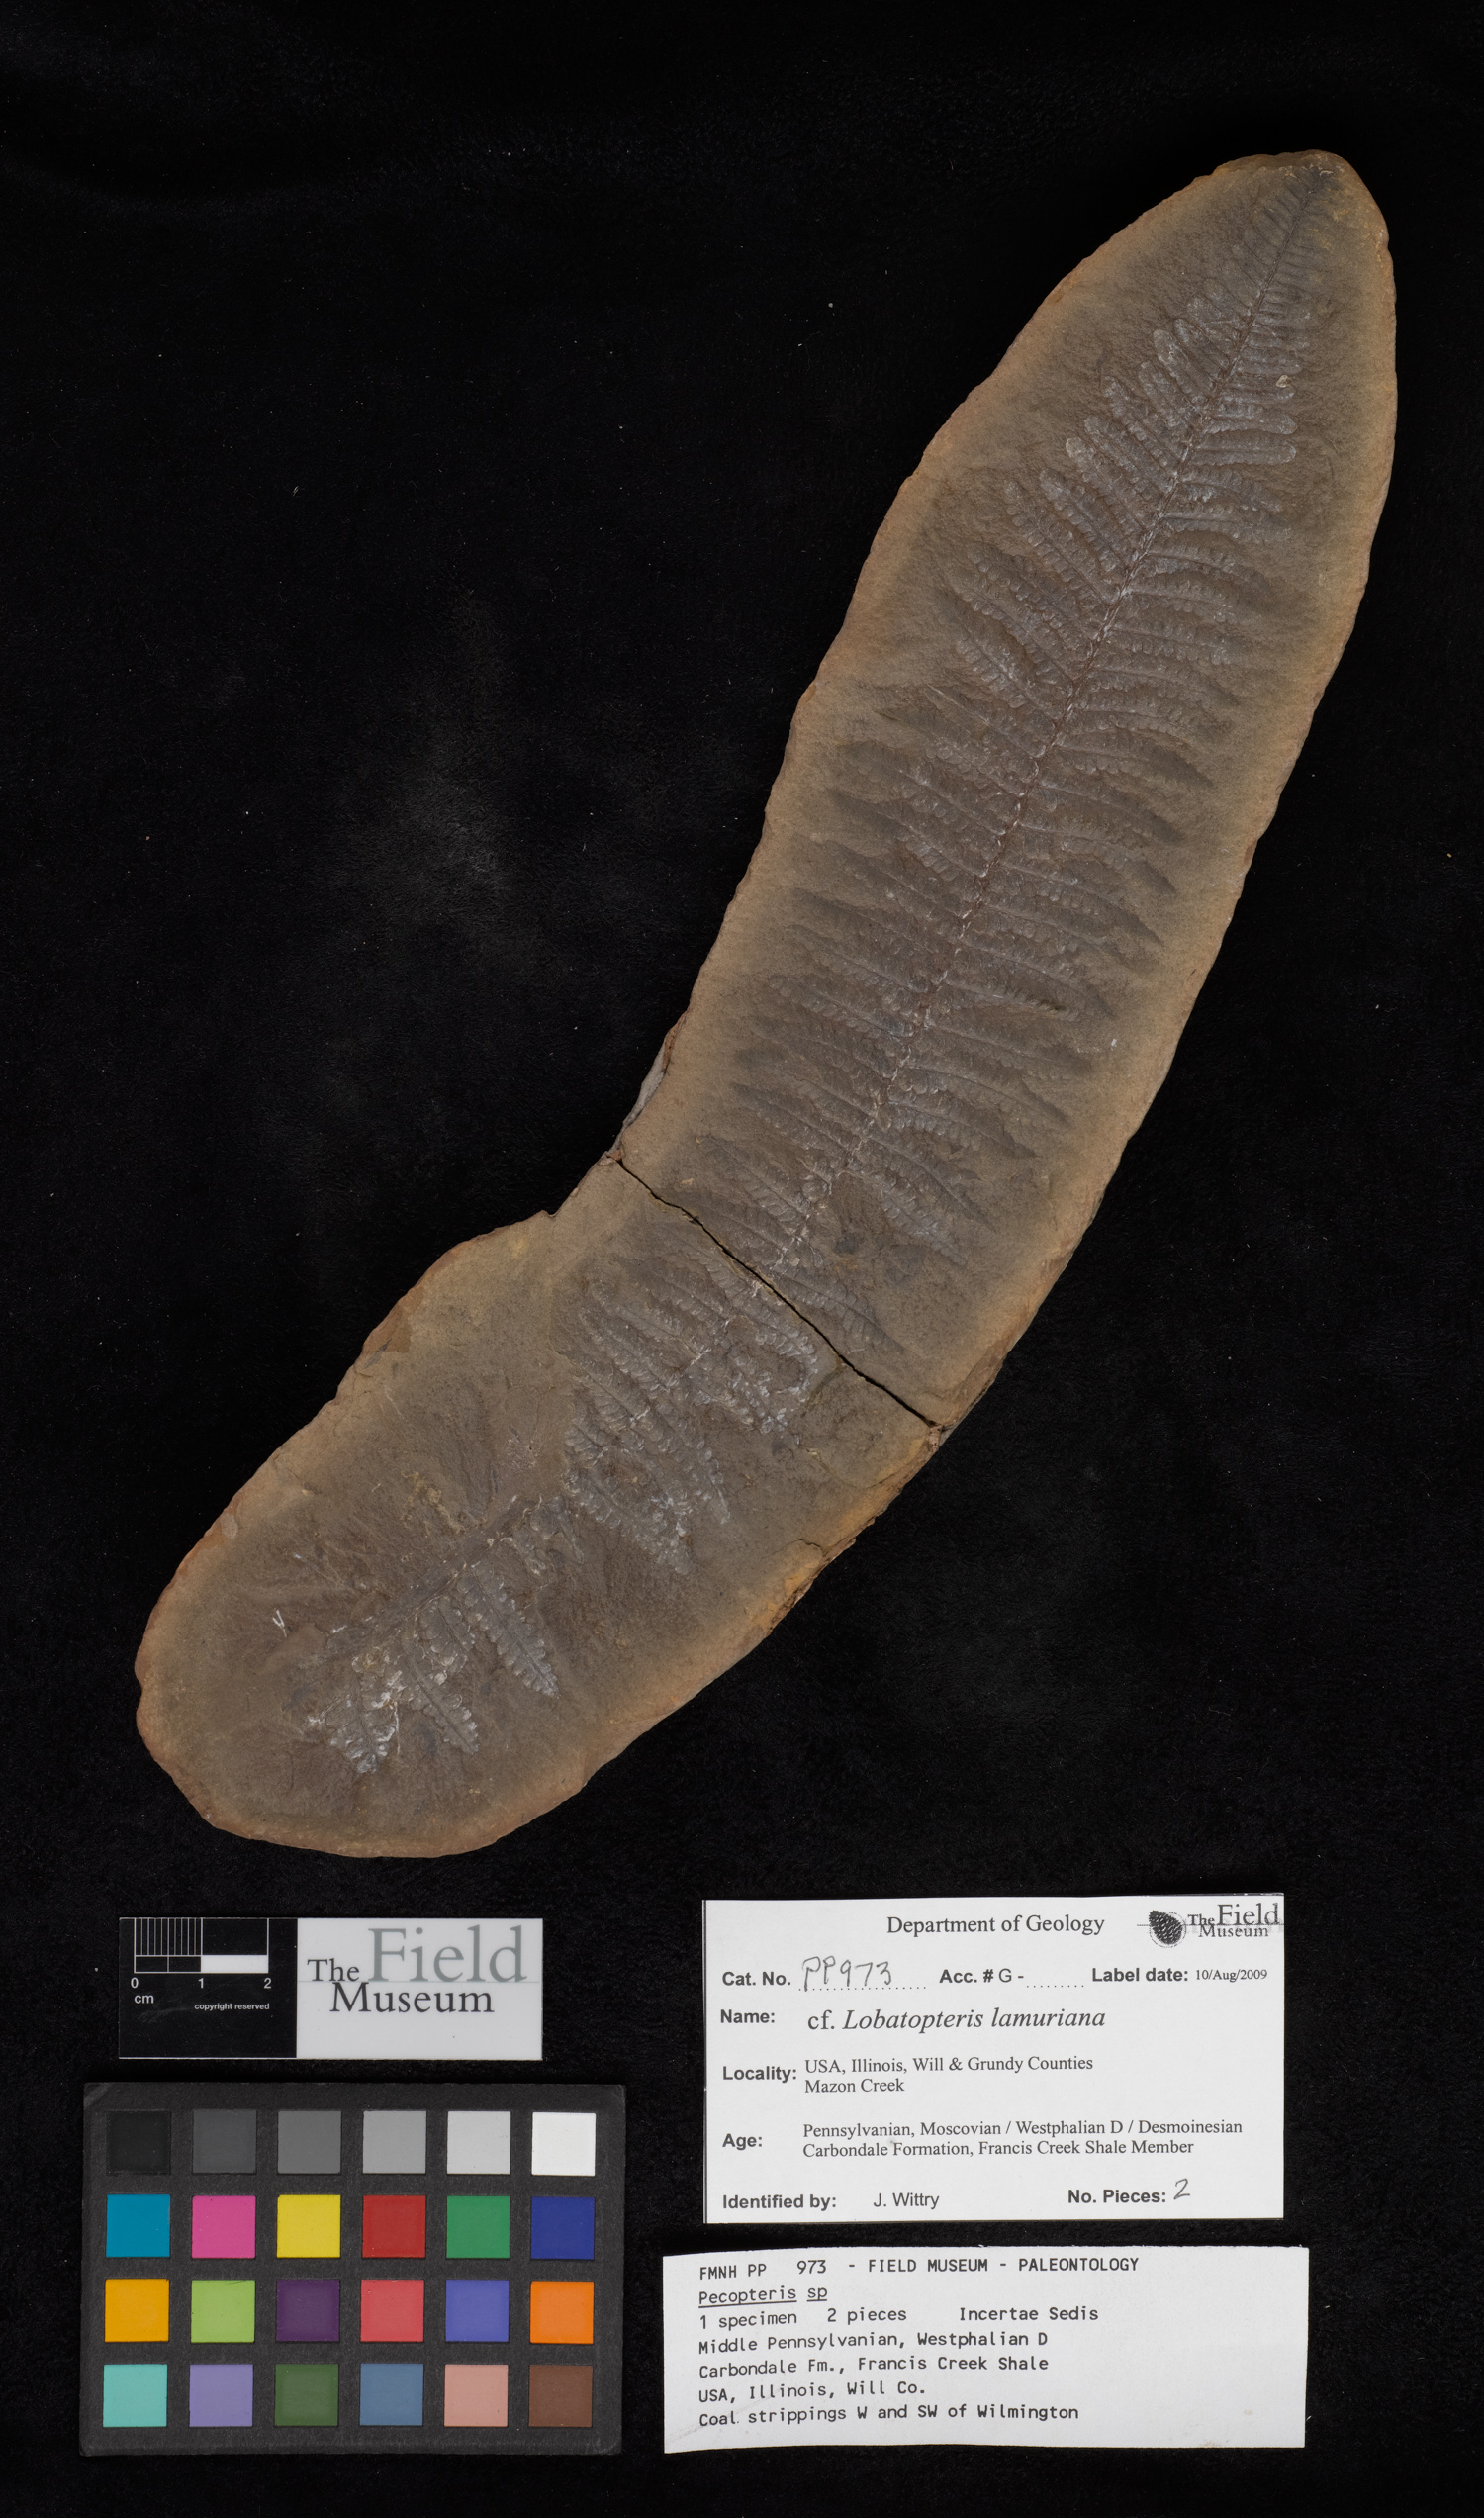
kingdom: Plantae
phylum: Tracheophyta
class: Polypodiopsida
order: Marattiales
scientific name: Marattiales
